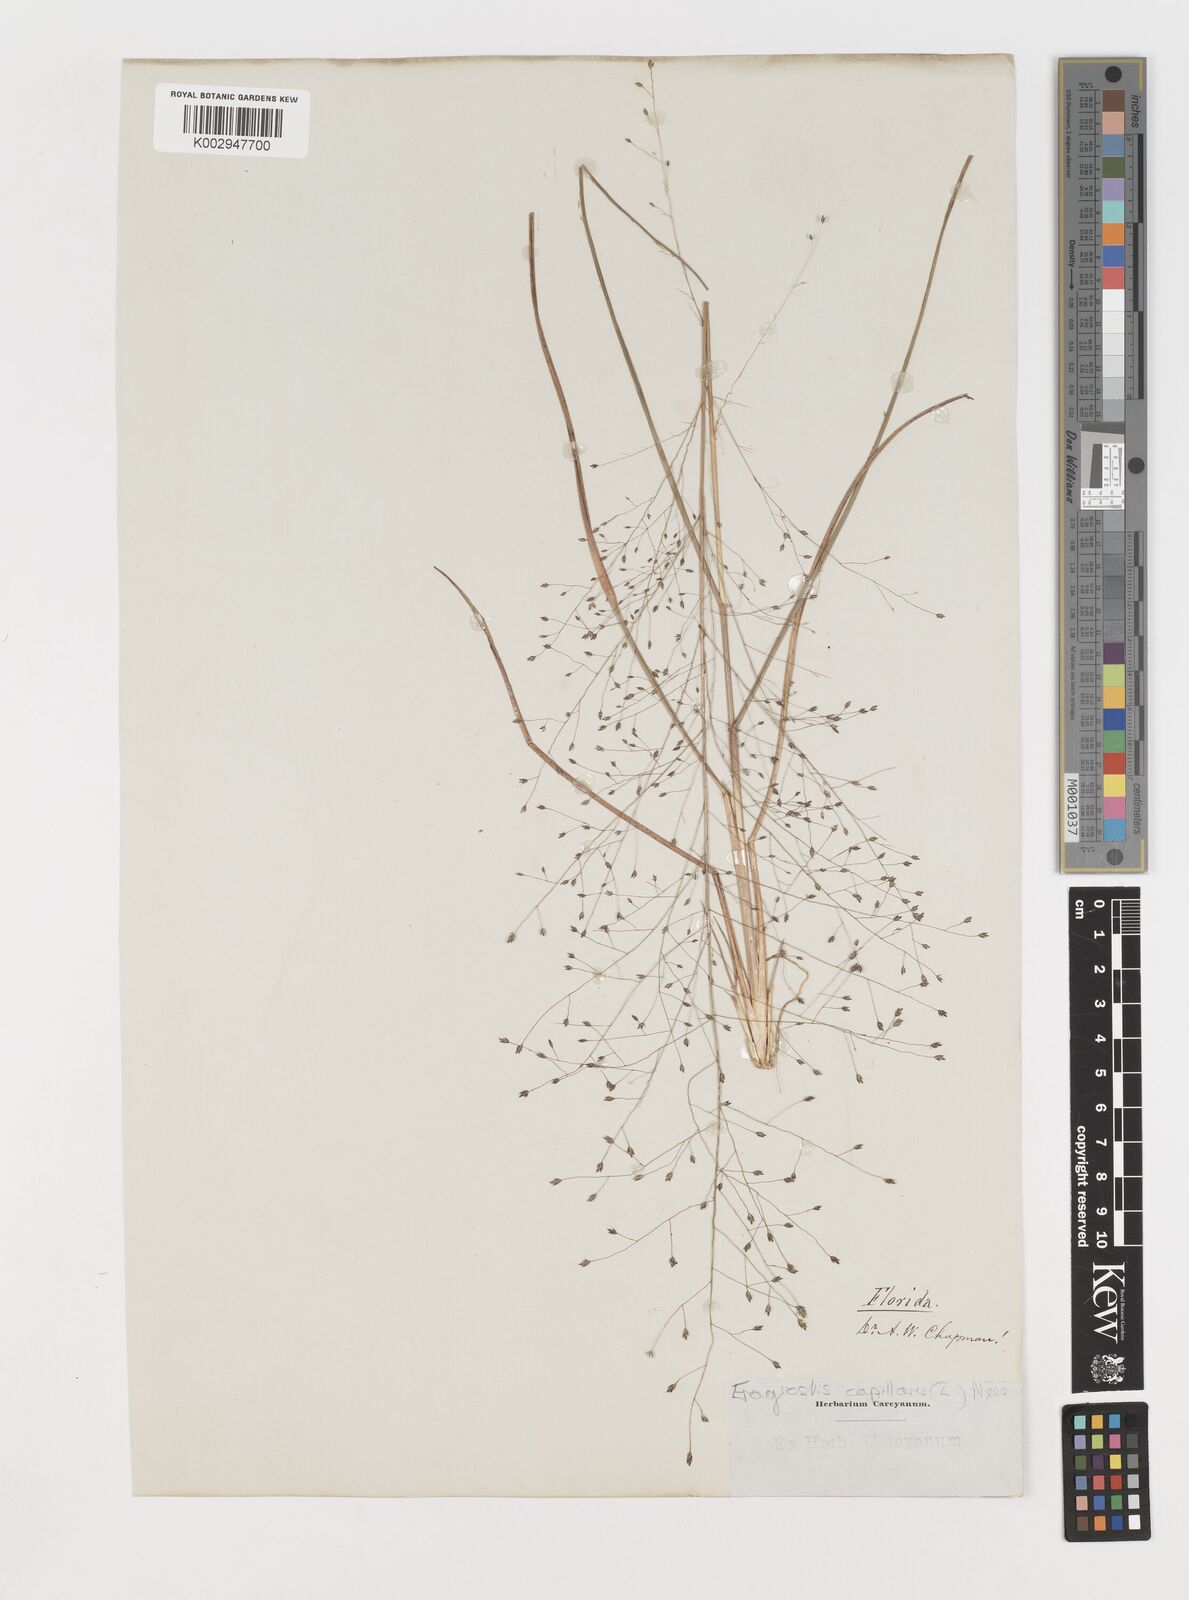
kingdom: Plantae
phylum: Tracheophyta
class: Liliopsida
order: Poales
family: Poaceae
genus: Eragrostis
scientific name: Eragrostis capillaris
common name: Hair-like lovegrass
